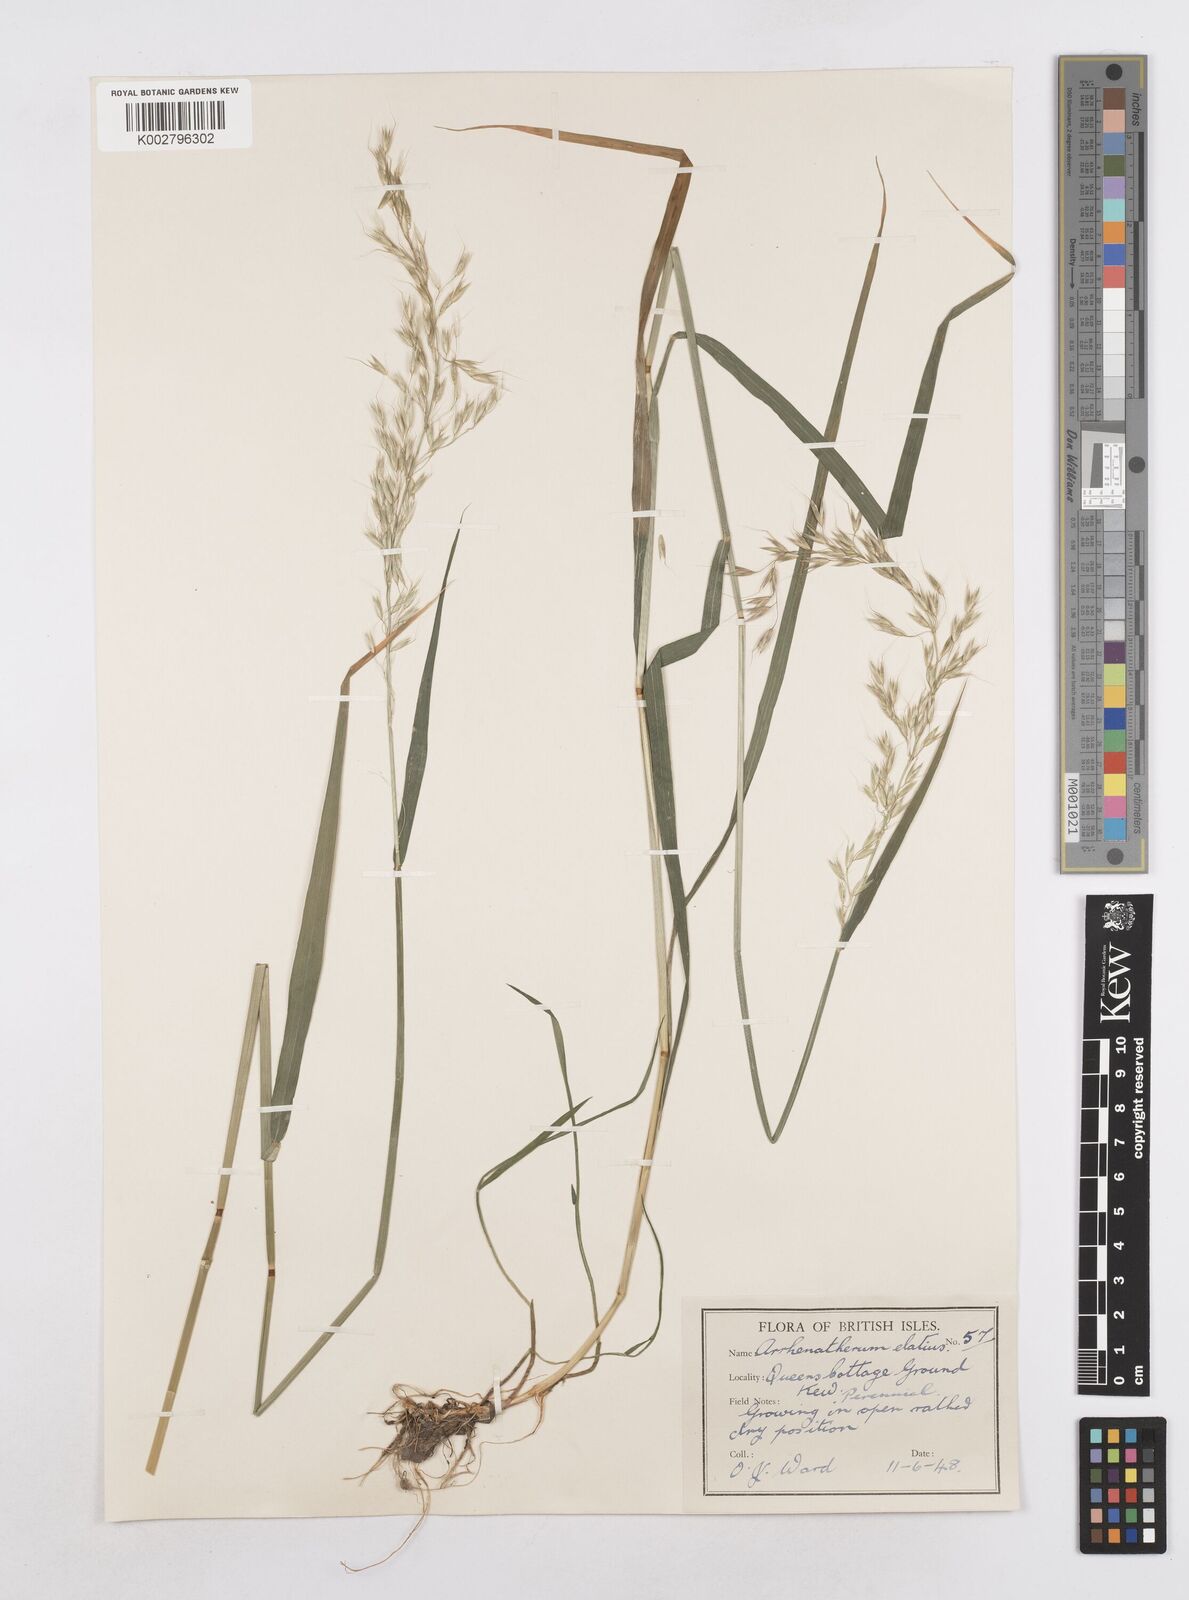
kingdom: Plantae
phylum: Tracheophyta
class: Liliopsida
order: Poales
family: Poaceae
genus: Arrhenatherum
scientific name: Arrhenatherum elatius
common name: Tall oatgrass
